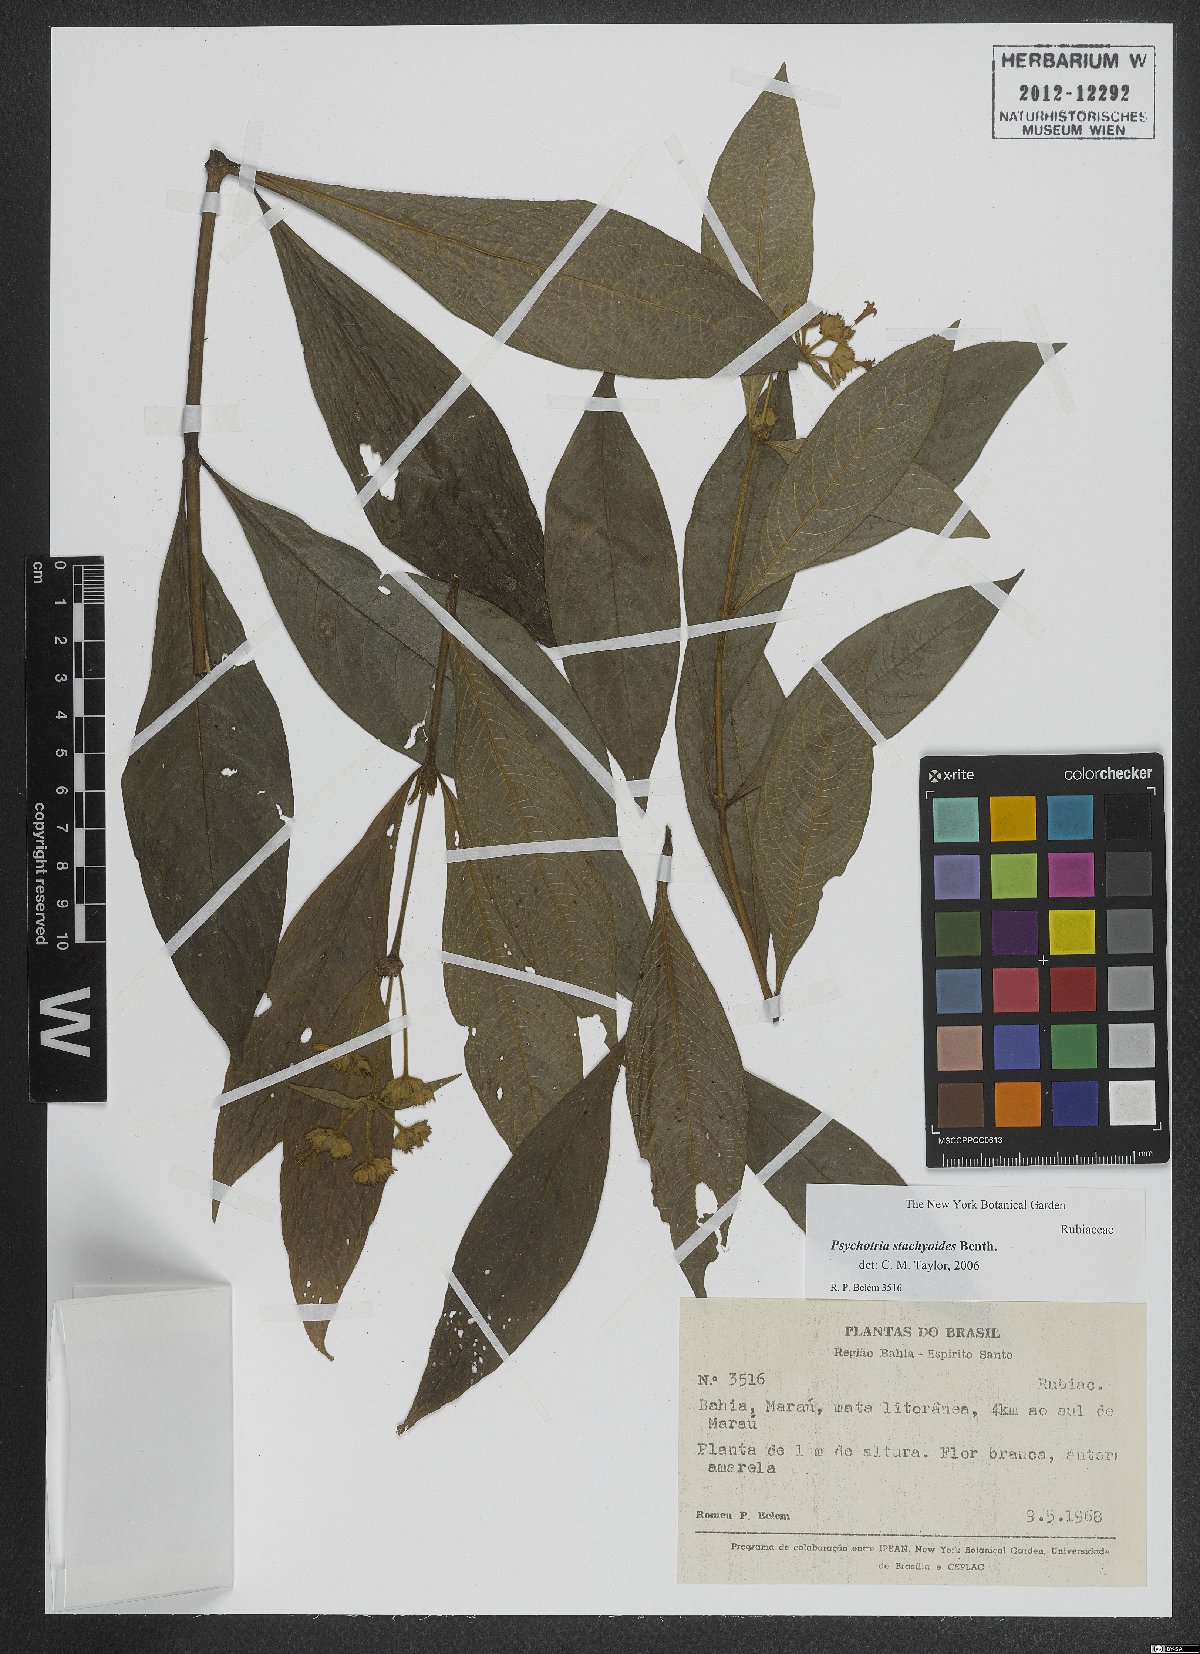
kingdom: Plantae
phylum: Tracheophyta
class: Magnoliopsida
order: Gentianales
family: Rubiaceae
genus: Psychotria
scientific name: Psychotria stachyoides
